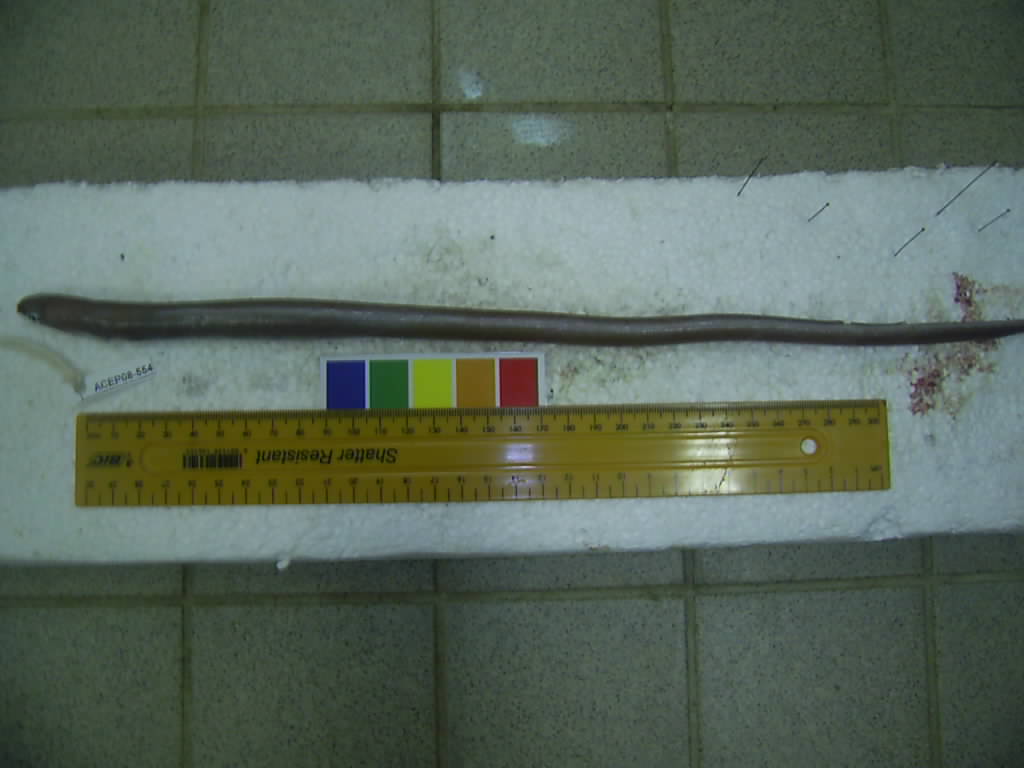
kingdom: Animalia
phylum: Chordata
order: Anguilliformes
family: Ophichthidae
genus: Ophichthus
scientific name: Ophichthus unicolor
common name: Plain snake-eel
